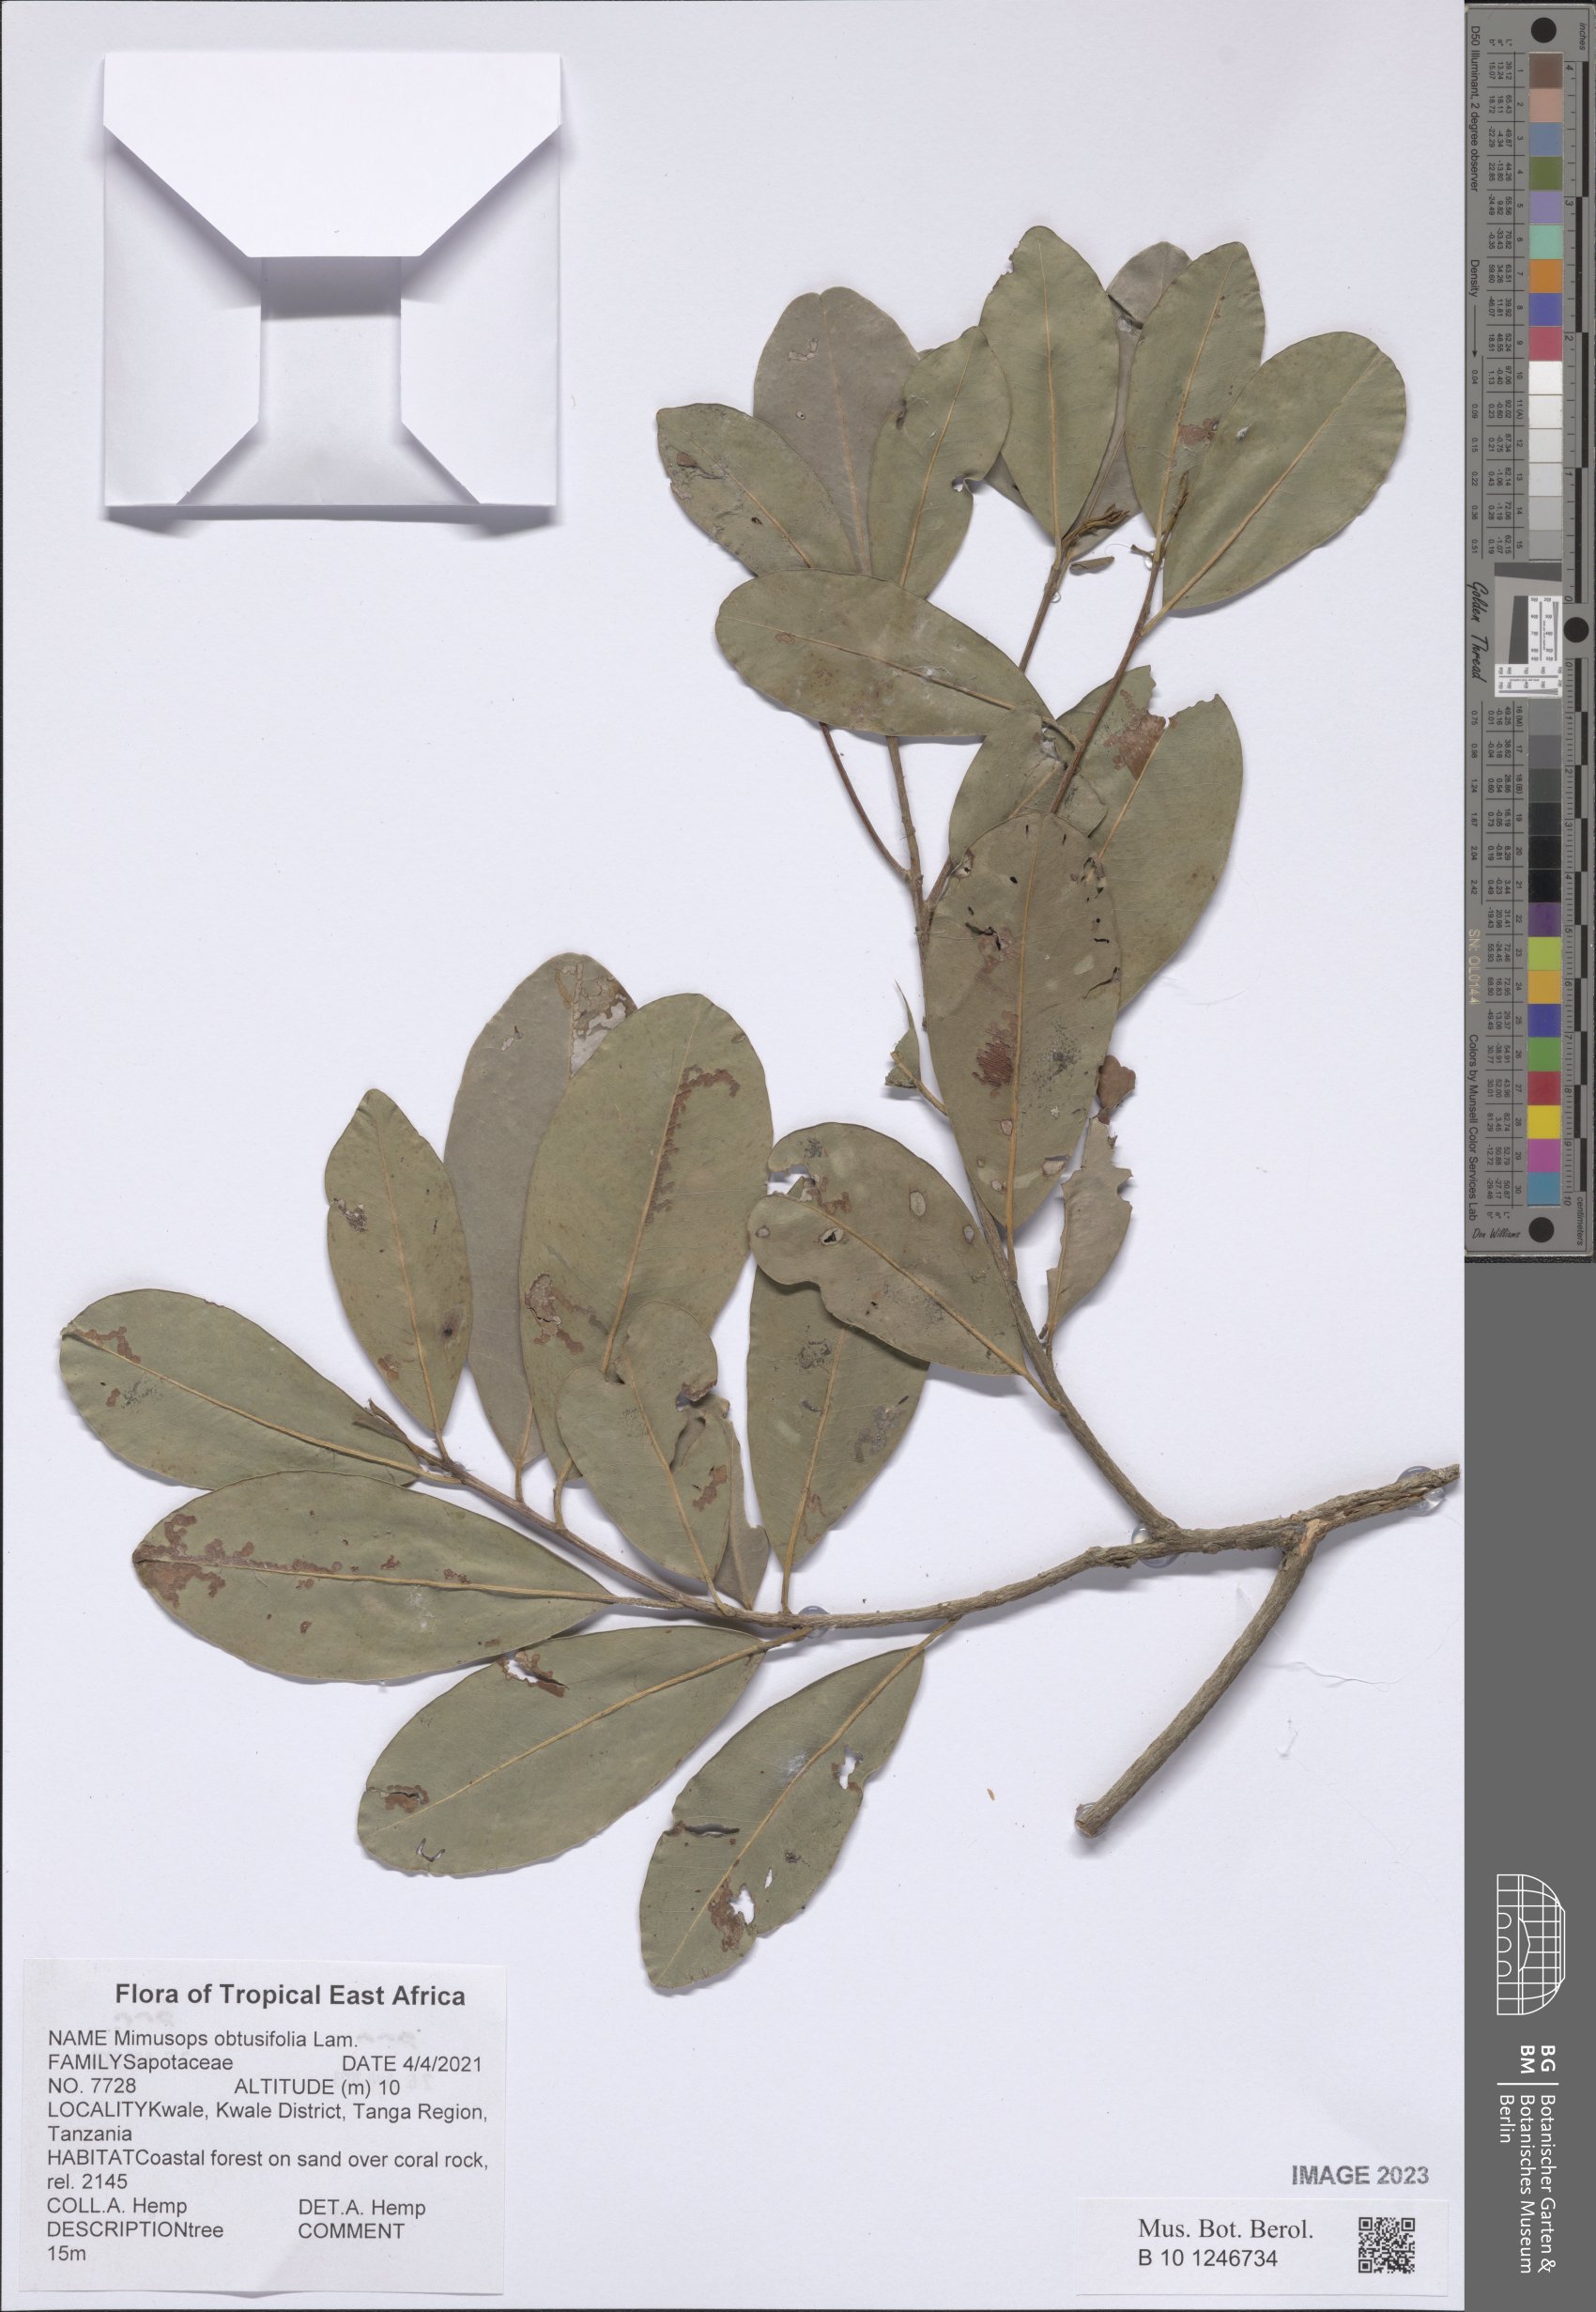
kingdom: Plantae
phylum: Tracheophyta
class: Magnoliopsida
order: Ericales
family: Sapotaceae
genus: Mimusops
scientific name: Mimusops obtusifolia
